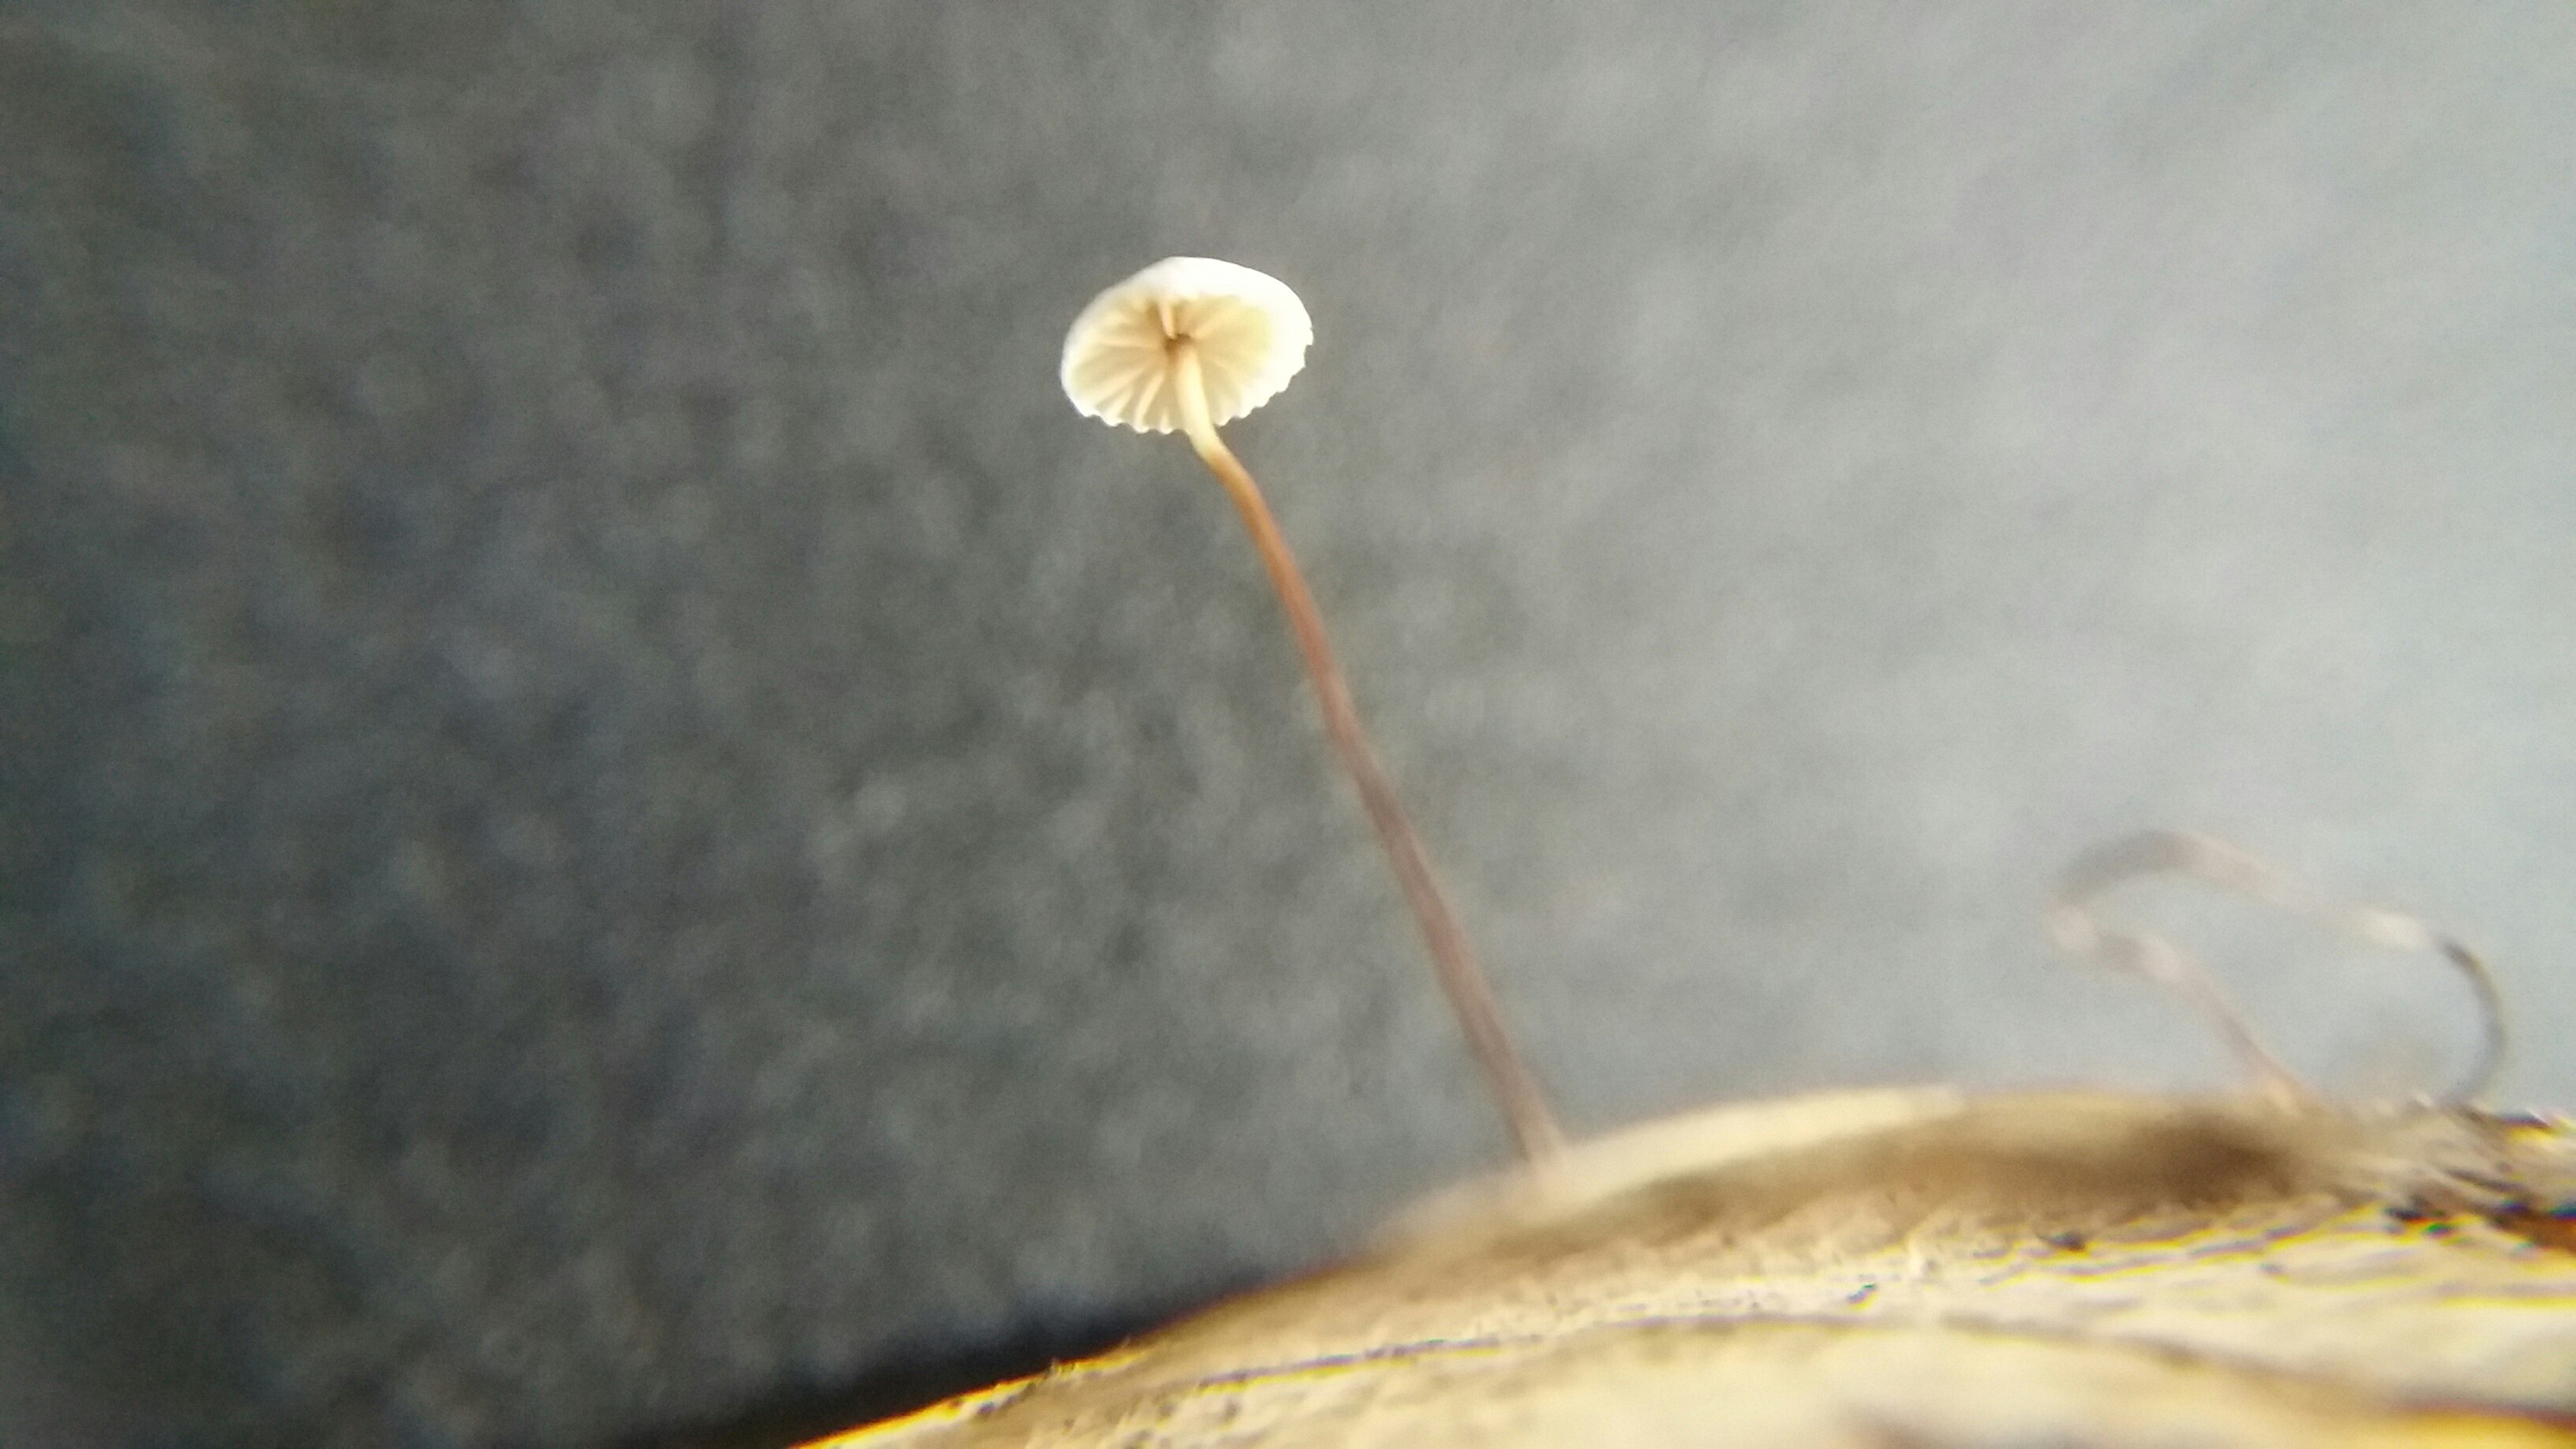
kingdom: Fungi
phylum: Basidiomycota
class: Agaricomycetes
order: Agaricales
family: Omphalotaceae
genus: Collybiopsis
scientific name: Collybiopsis quercophila
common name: egeblads-bruskhat
